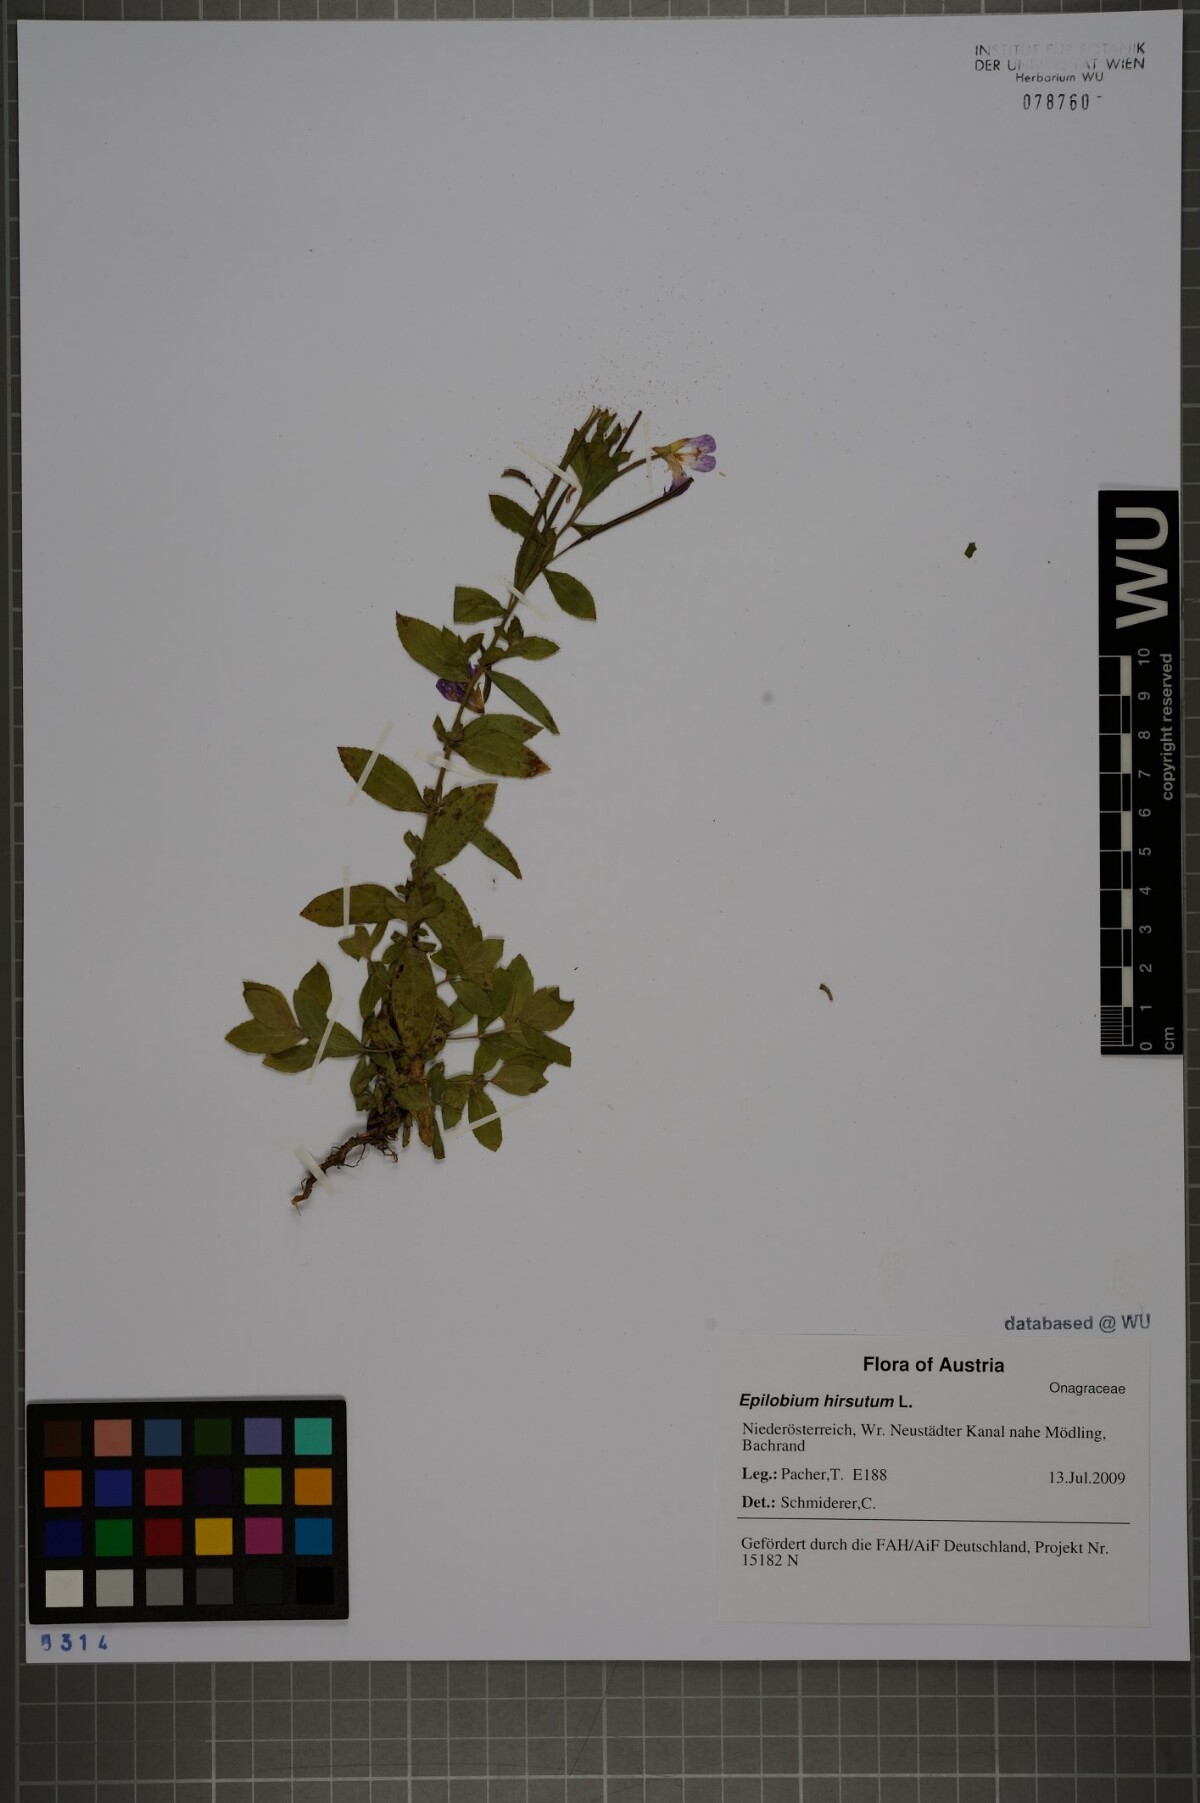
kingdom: Plantae
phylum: Tracheophyta
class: Magnoliopsida
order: Myrtales
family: Onagraceae
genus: Epilobium
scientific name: Epilobium hirsutum
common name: Great willowherb
